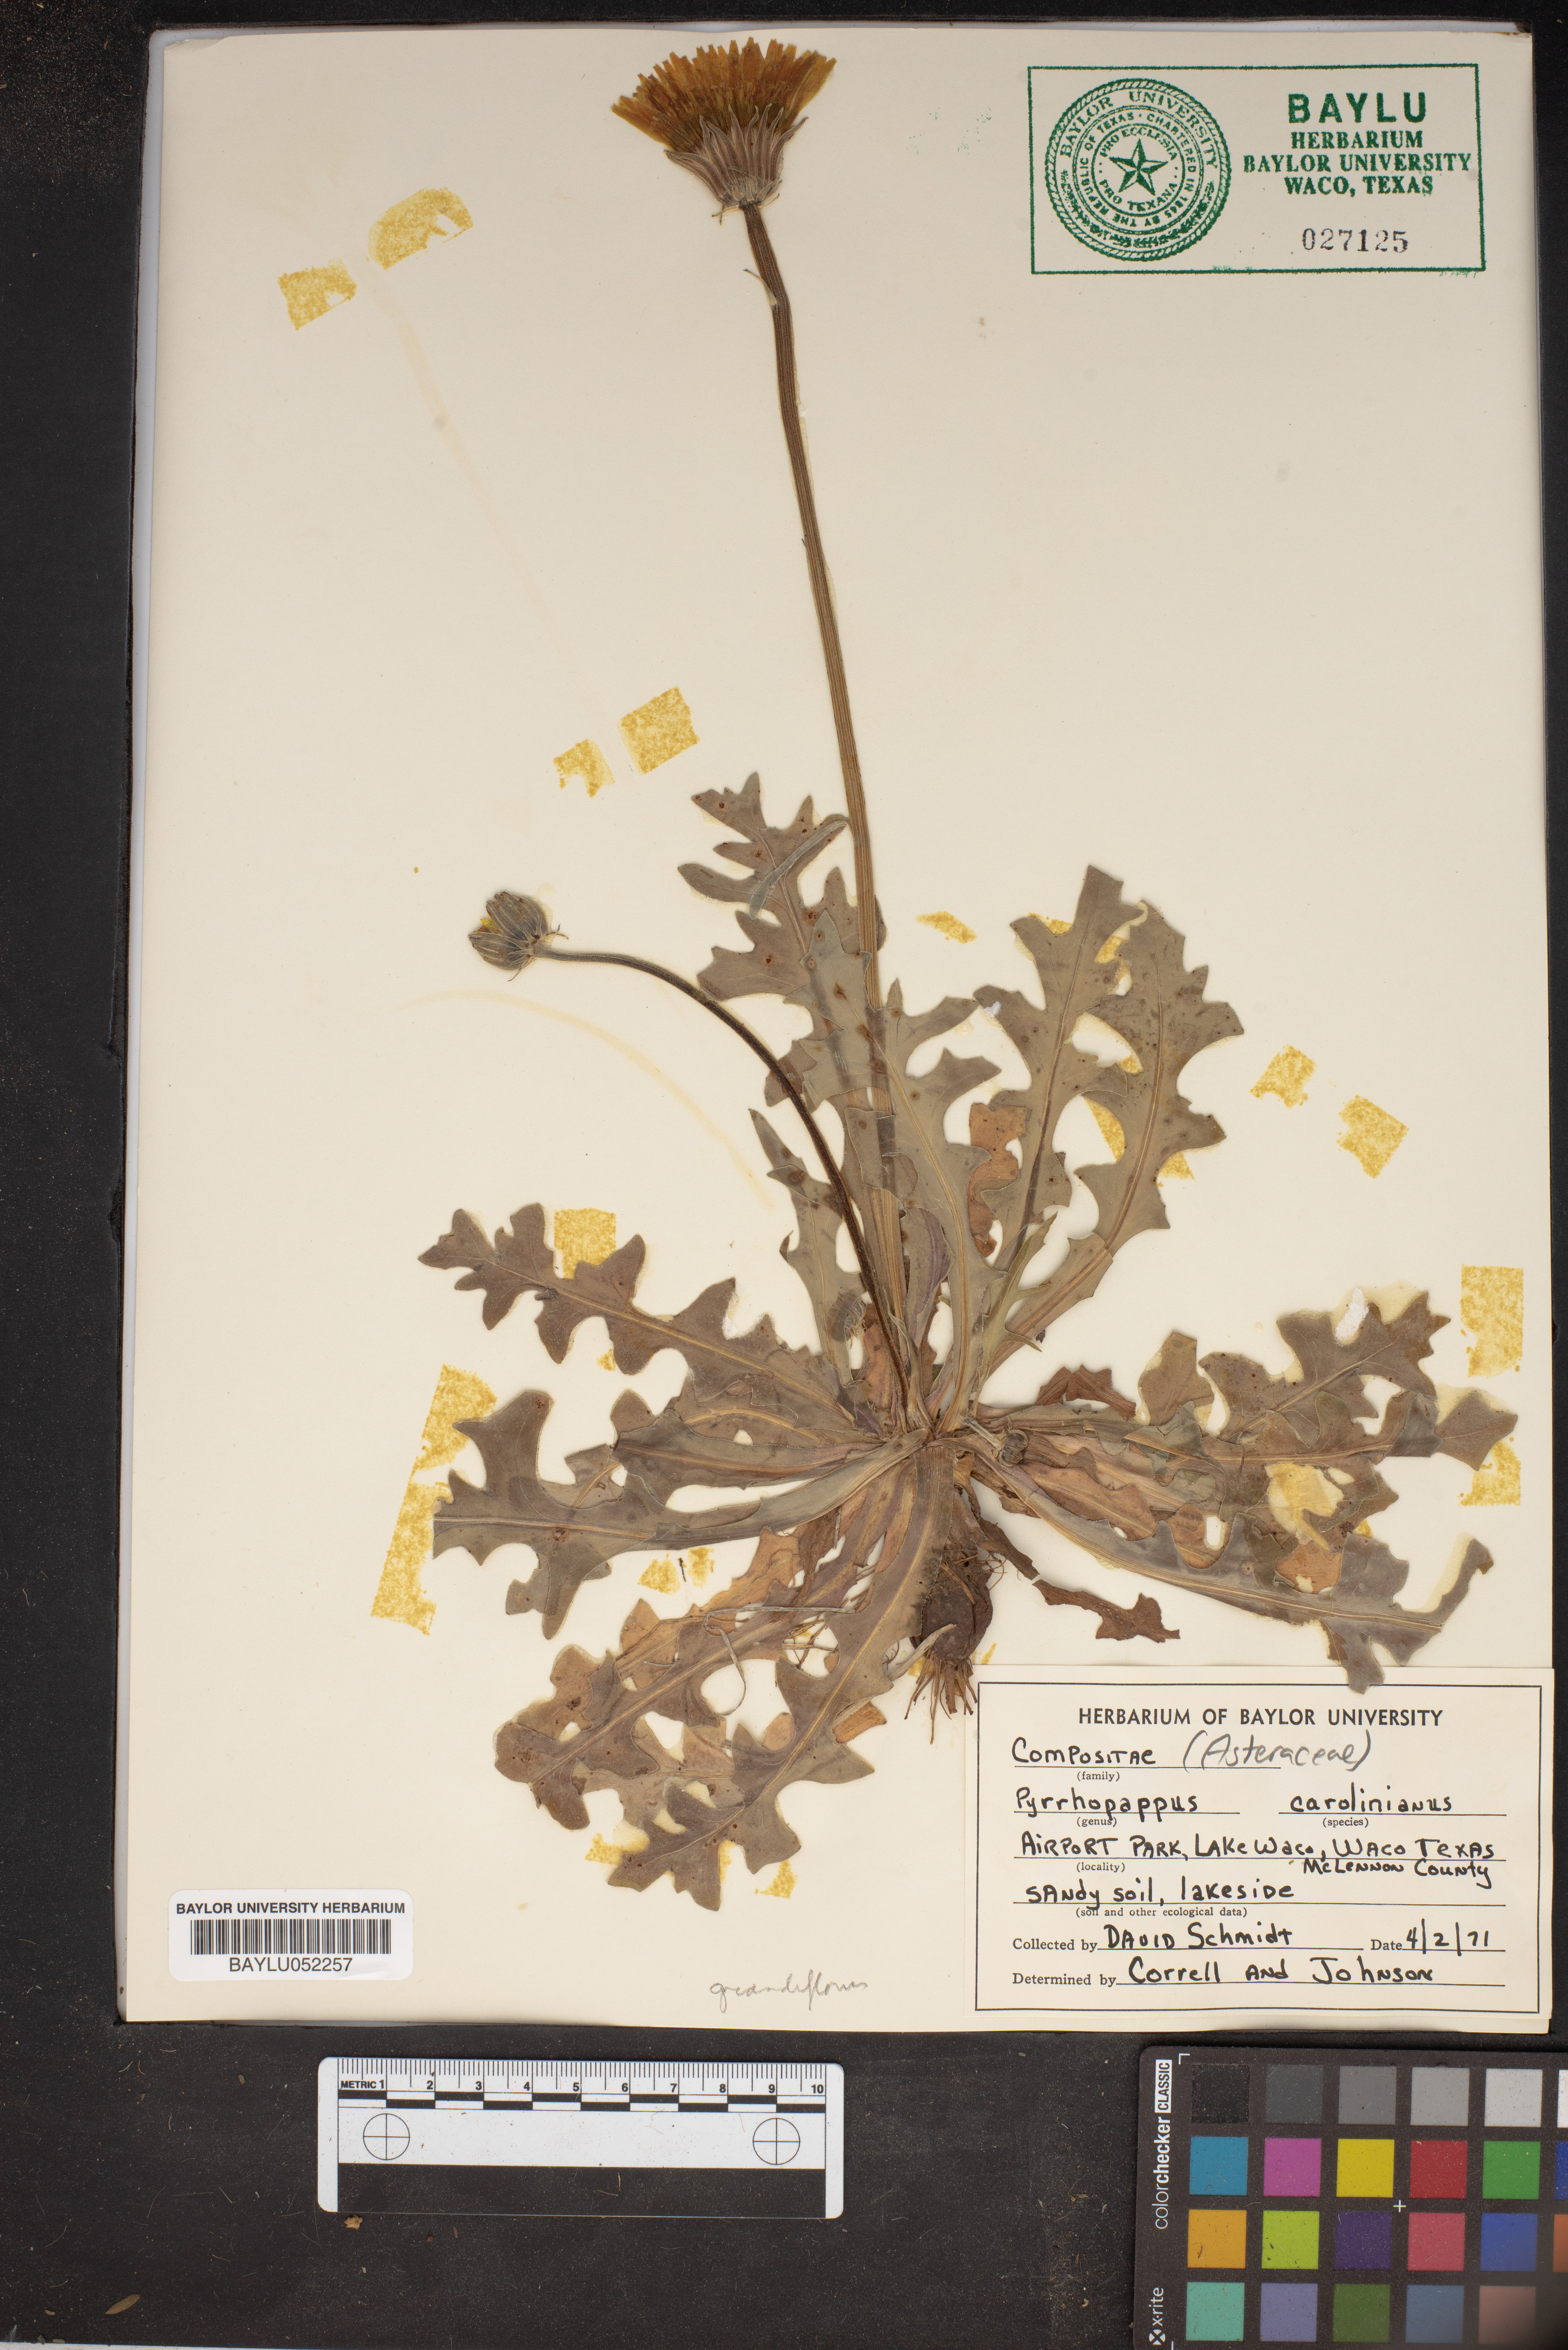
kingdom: Plantae
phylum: Tracheophyta
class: Magnoliopsida
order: Asterales
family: Asteraceae
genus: Pyrrhopappus
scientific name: Pyrrhopappus carolinianus
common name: Carolina desert-chicory
